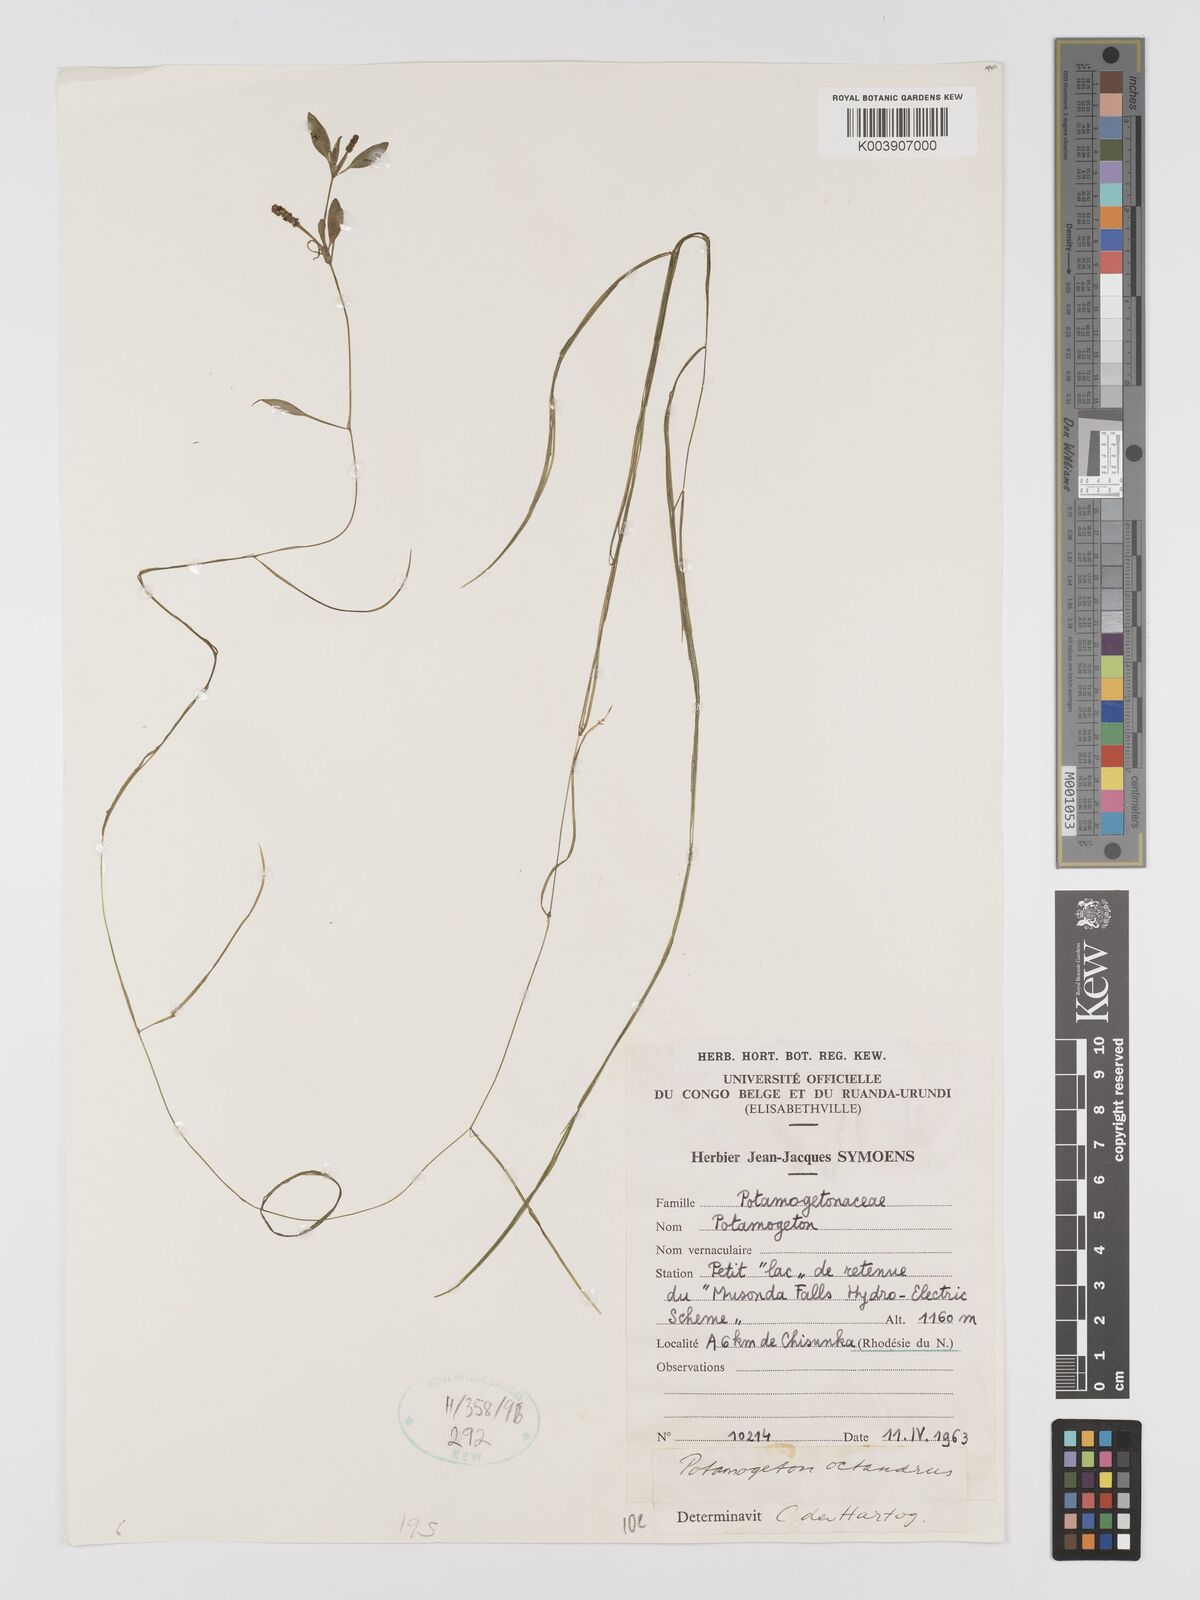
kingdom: Plantae
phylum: Tracheophyta
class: Liliopsida
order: Alismatales
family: Potamogetonaceae
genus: Potamogeton
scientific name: Potamogeton octandrus
